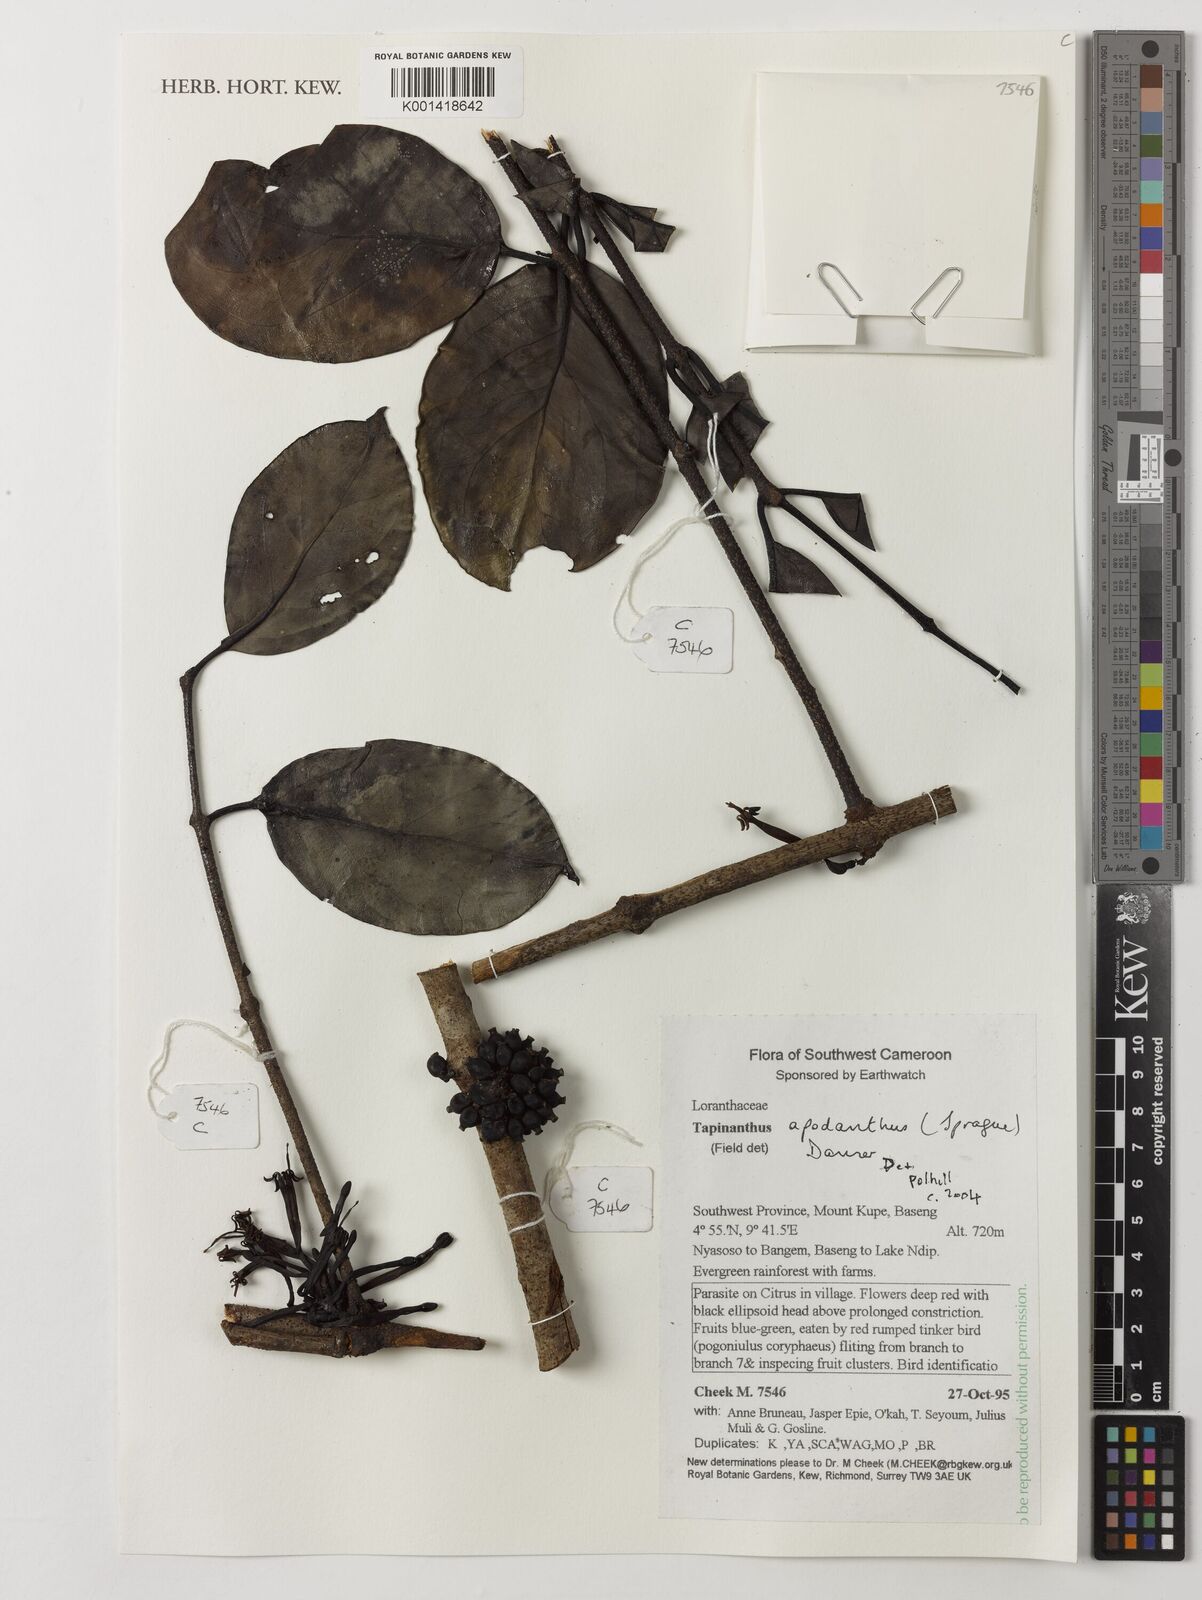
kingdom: Plantae
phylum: Tracheophyta
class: Magnoliopsida
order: Santalales
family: Loranthaceae
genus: Tapinanthus
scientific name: Tapinanthus apodanthus
